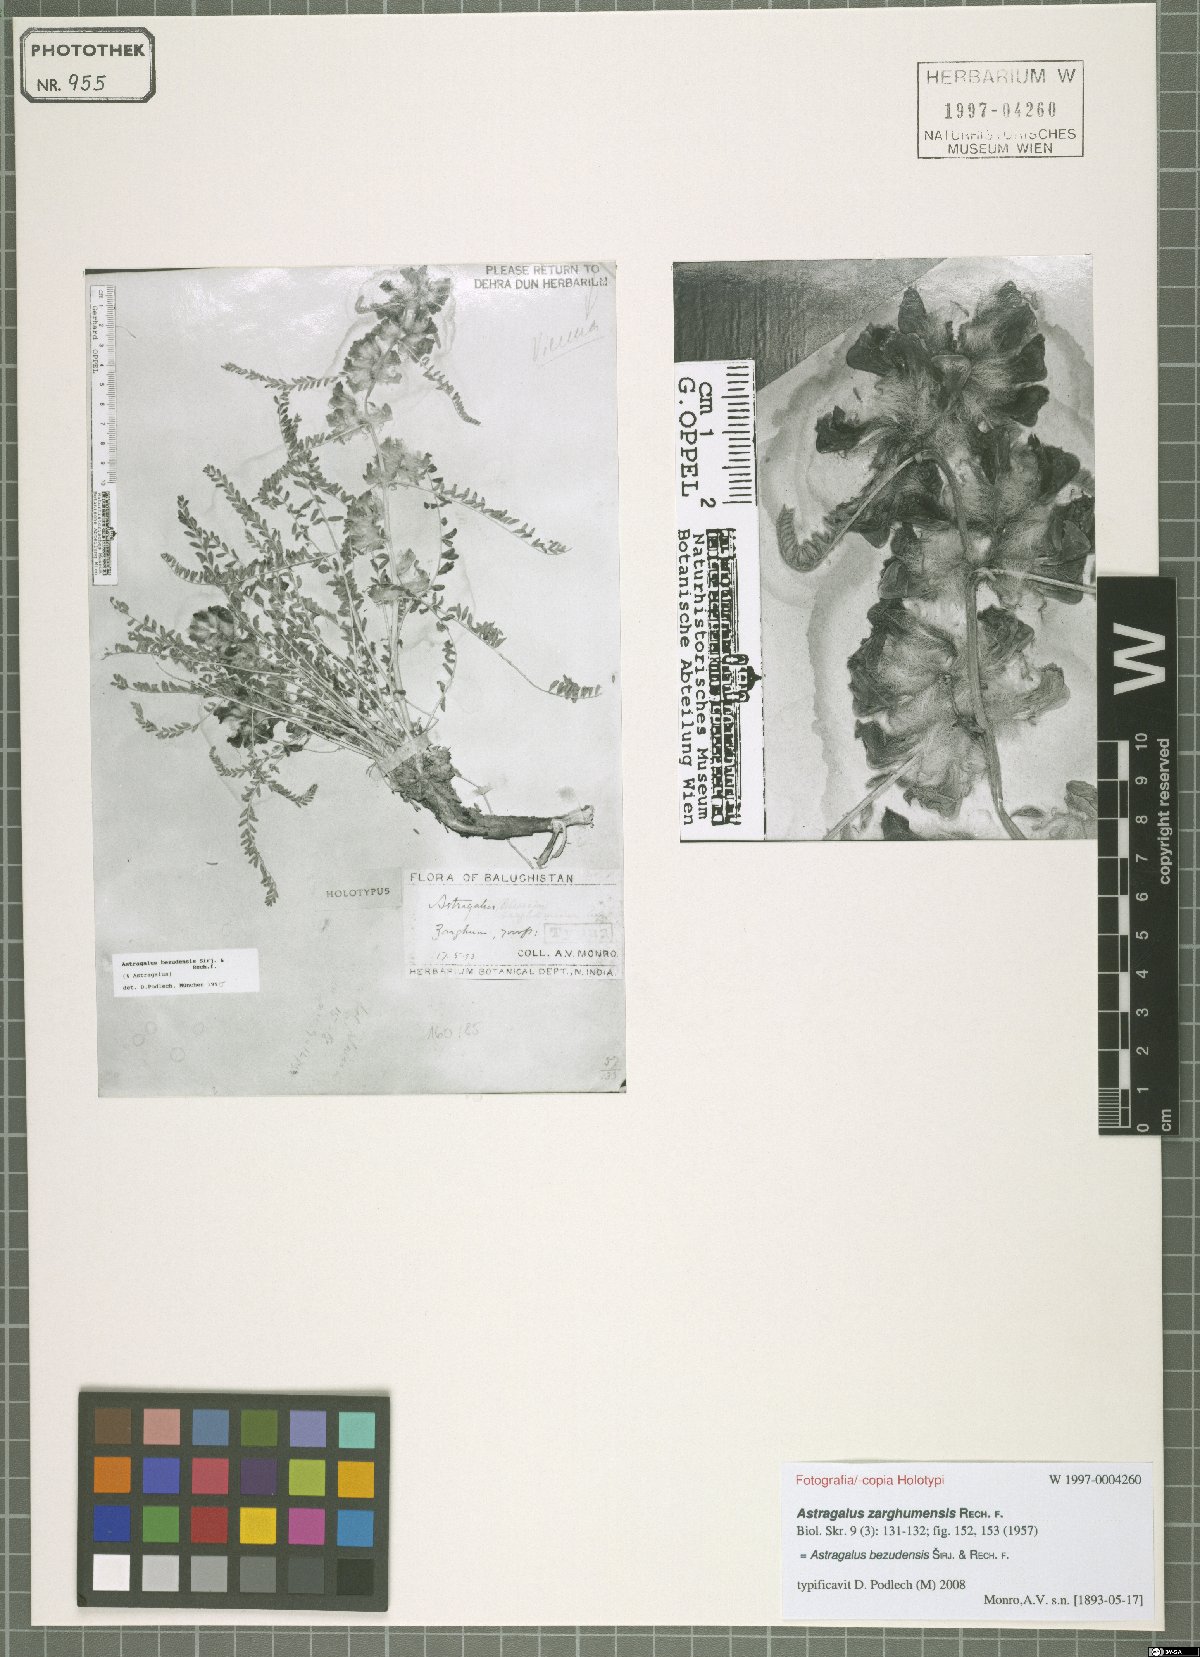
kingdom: Plantae
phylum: Tracheophyta
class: Magnoliopsida
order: Fabales
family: Fabaceae
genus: Astragalus
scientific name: Astragalus bezudensis
